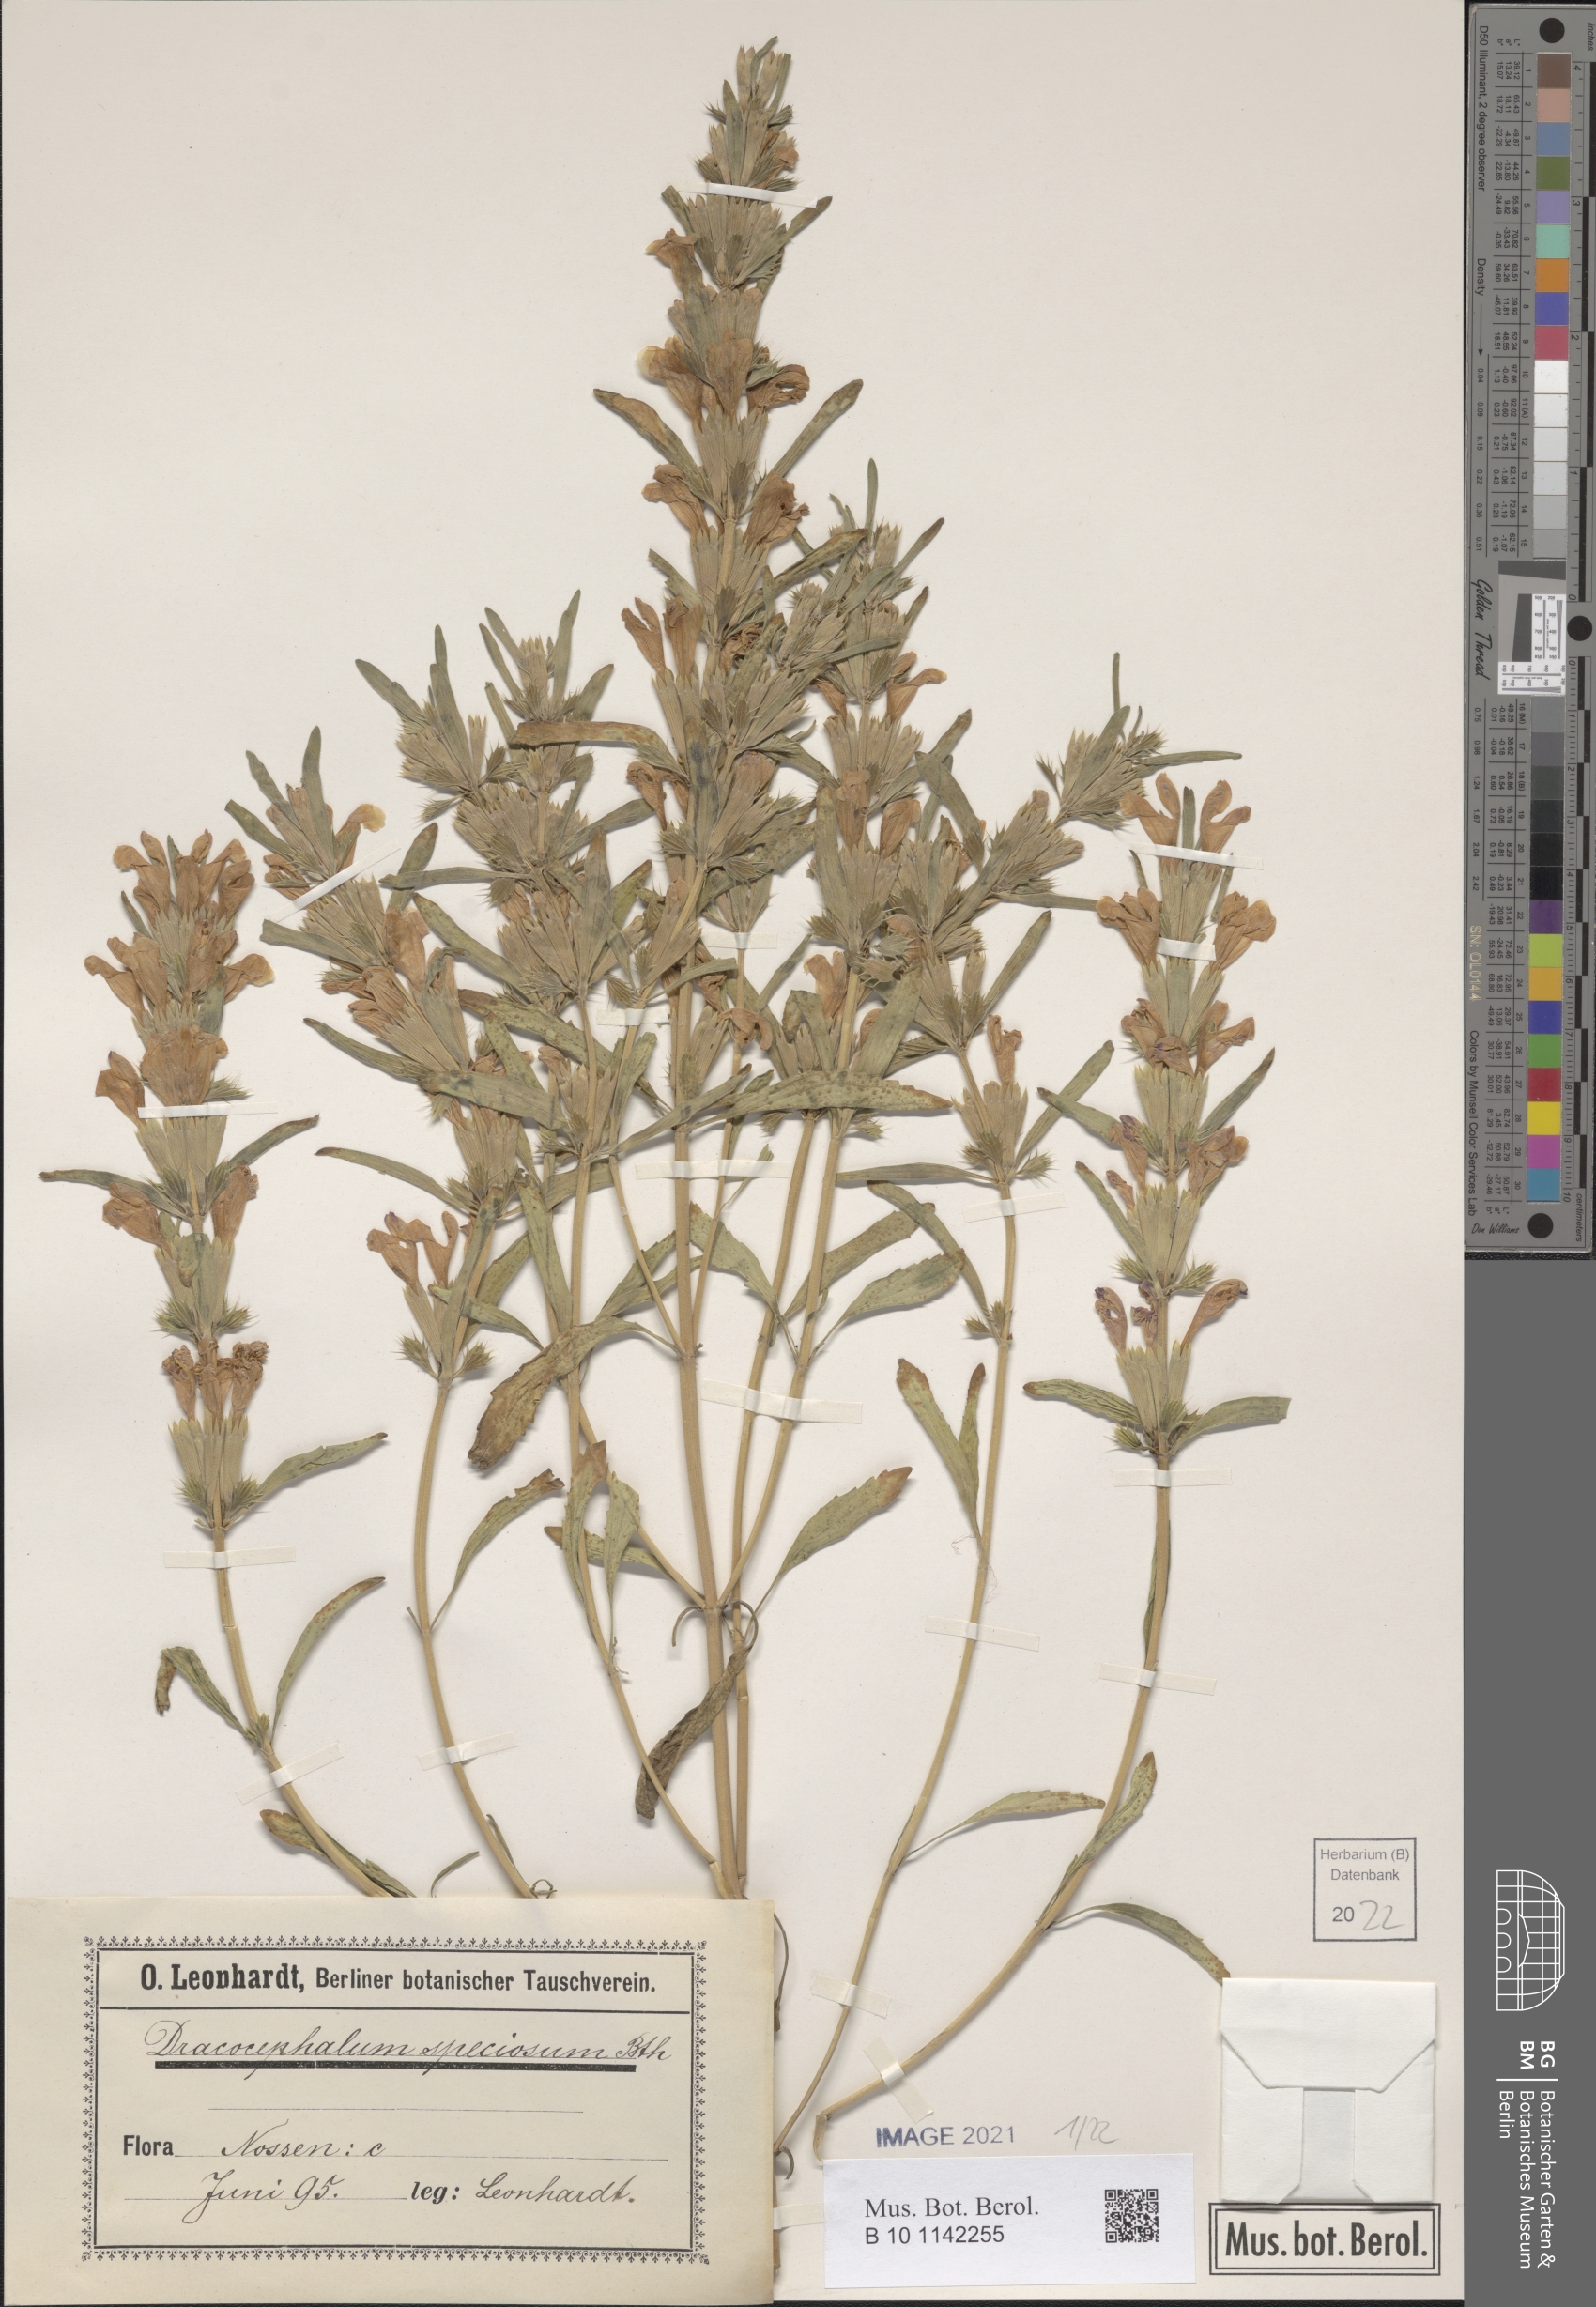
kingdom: Plantae
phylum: Tracheophyta
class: Magnoliopsida
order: Lamiales
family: Lamiaceae
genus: Dracocephalum
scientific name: Dracocephalum wallichii
